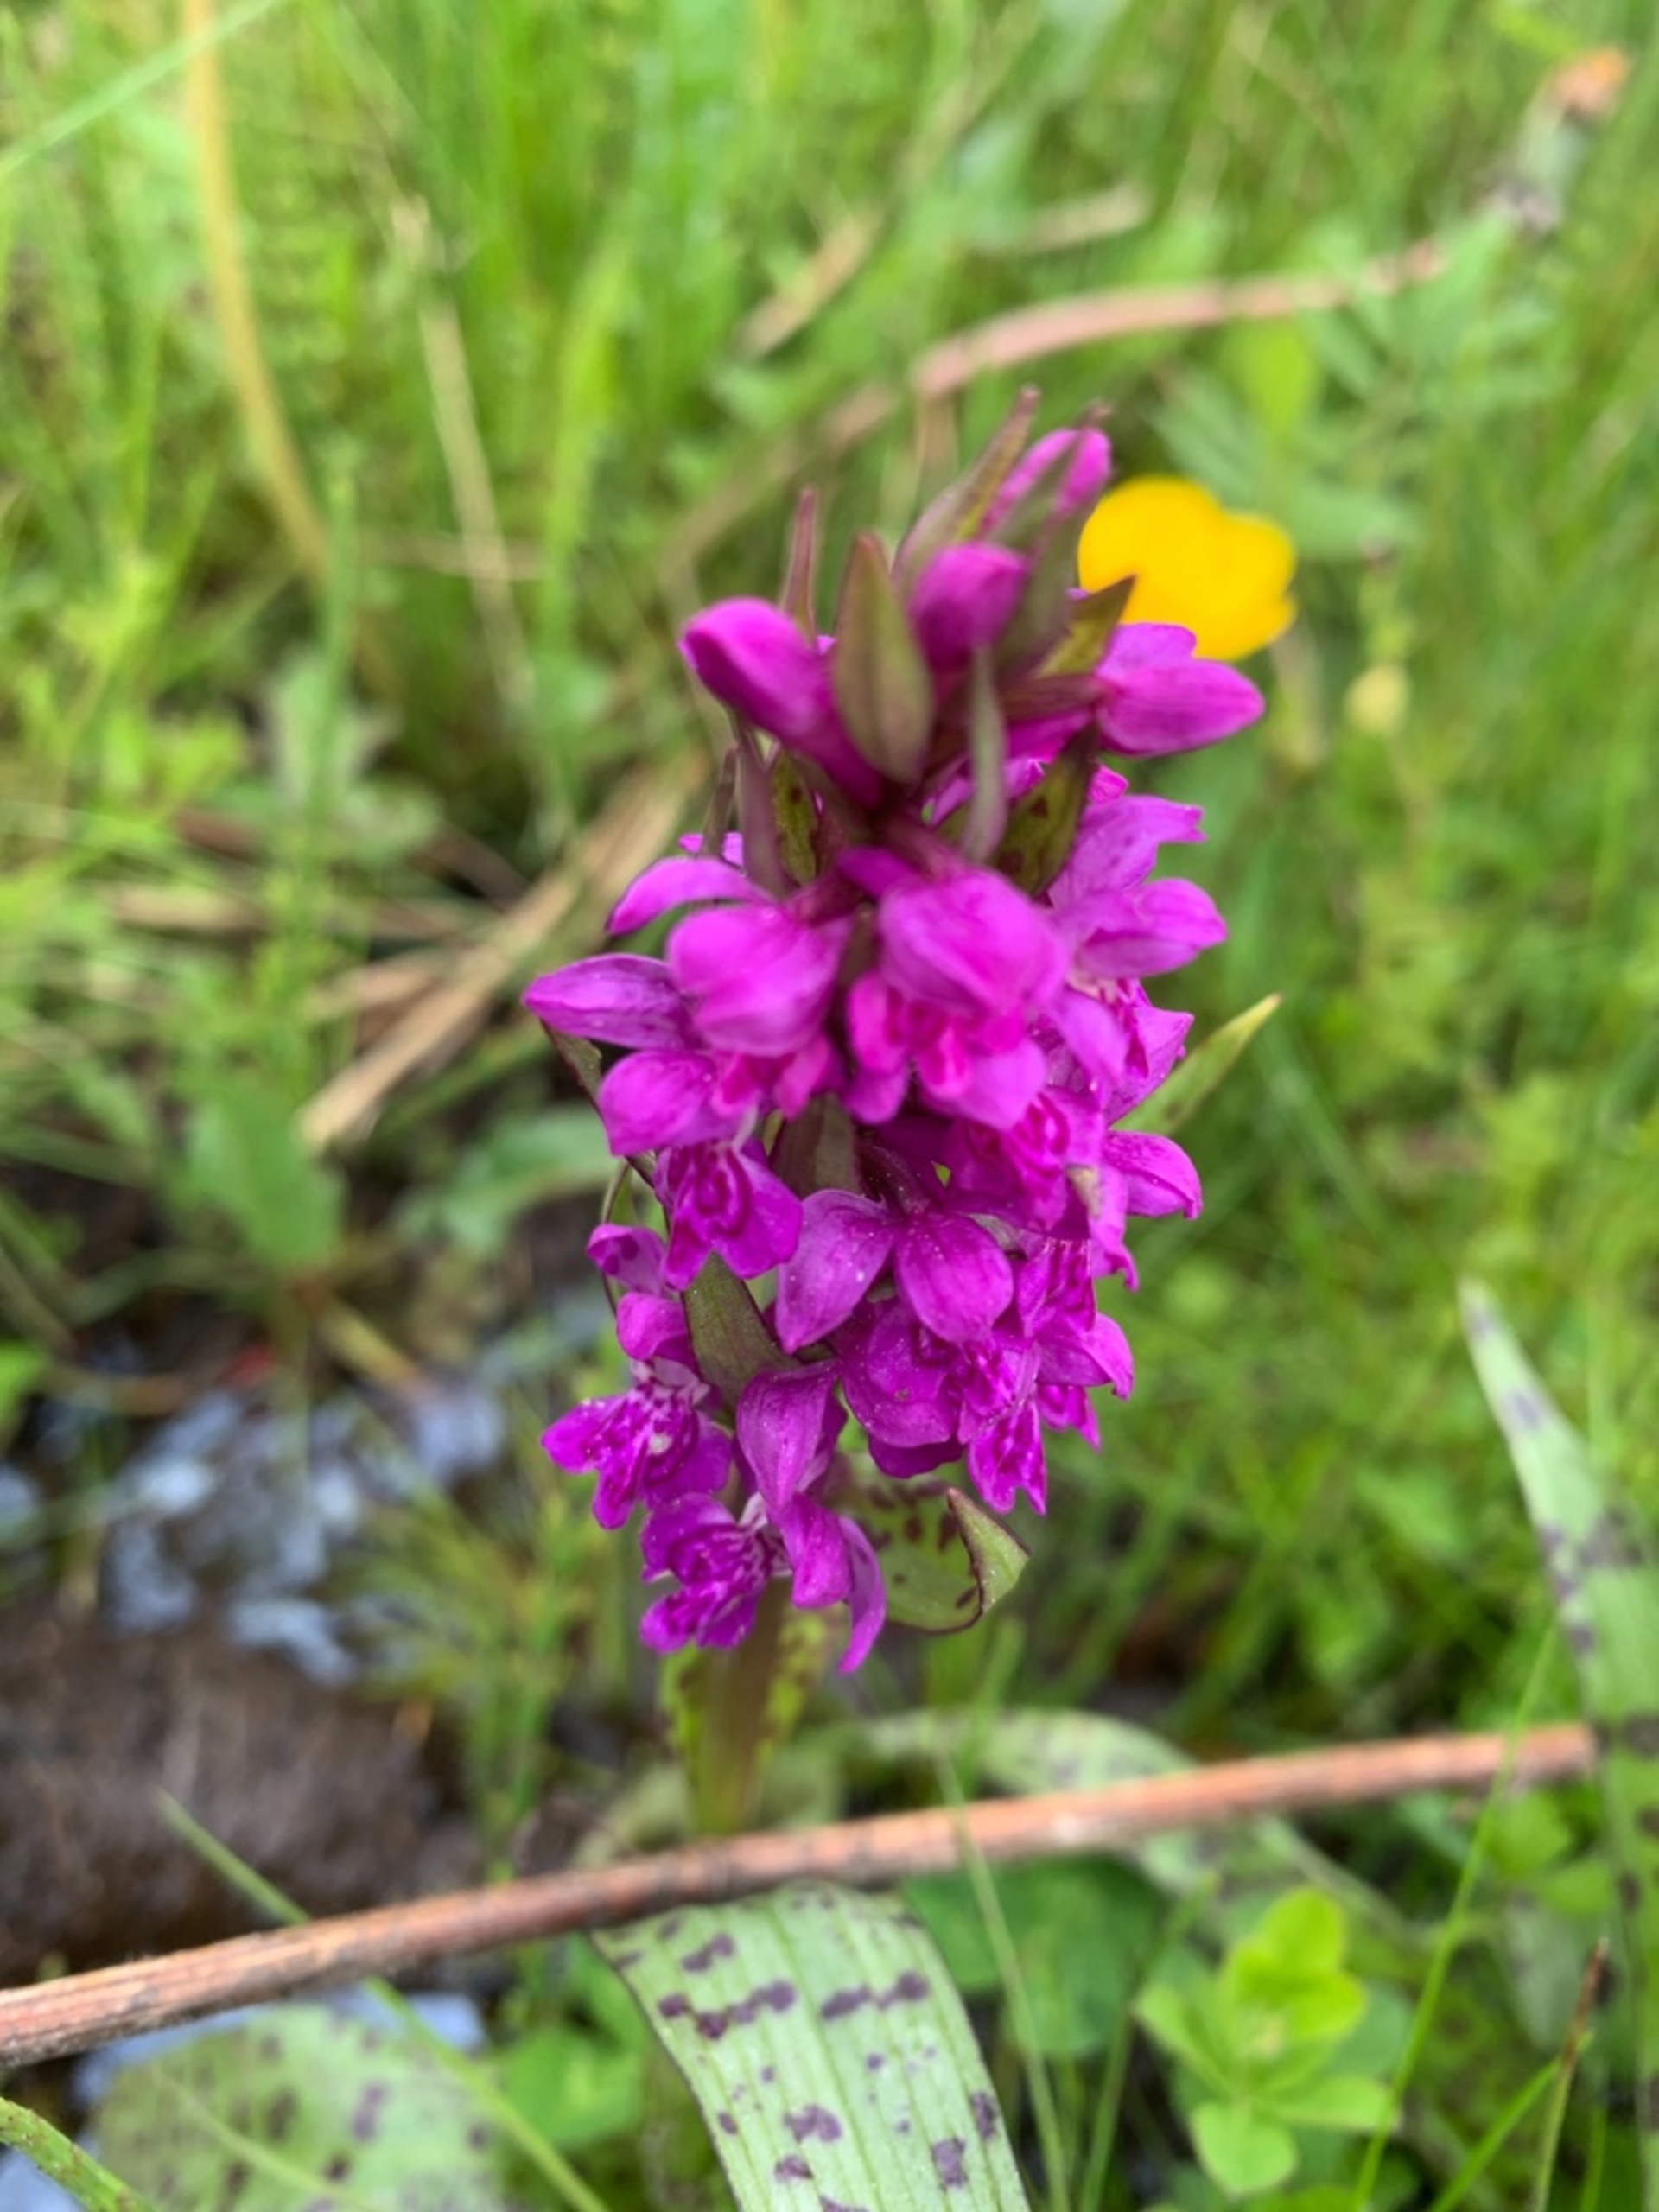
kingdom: Plantae
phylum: Tracheophyta
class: Liliopsida
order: Asparagales
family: Orchidaceae
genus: Dactylorhiza
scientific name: Dactylorhiza majalis
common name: Maj-gøgeurt
